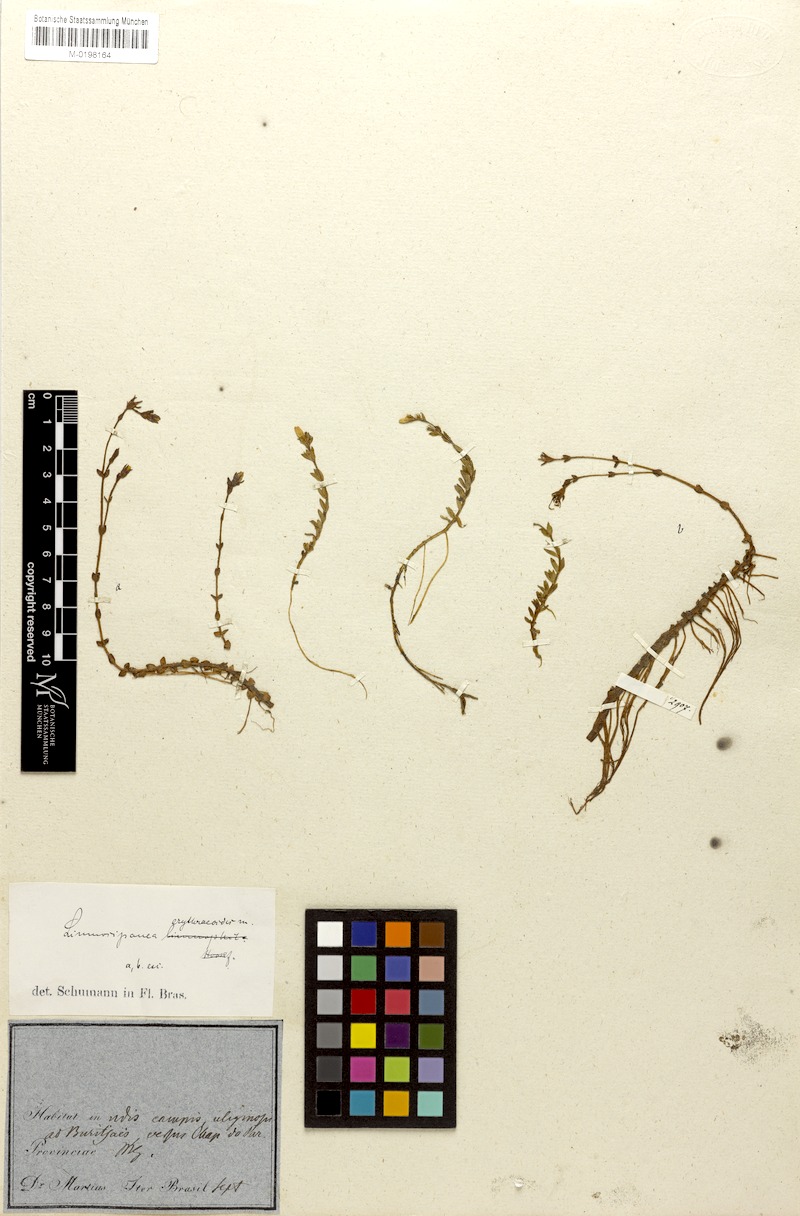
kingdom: Plantae
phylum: Tracheophyta
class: Magnoliopsida
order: Gentianales
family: Rubiaceae
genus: Limnosipanea
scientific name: Limnosipanea erythraeoides
